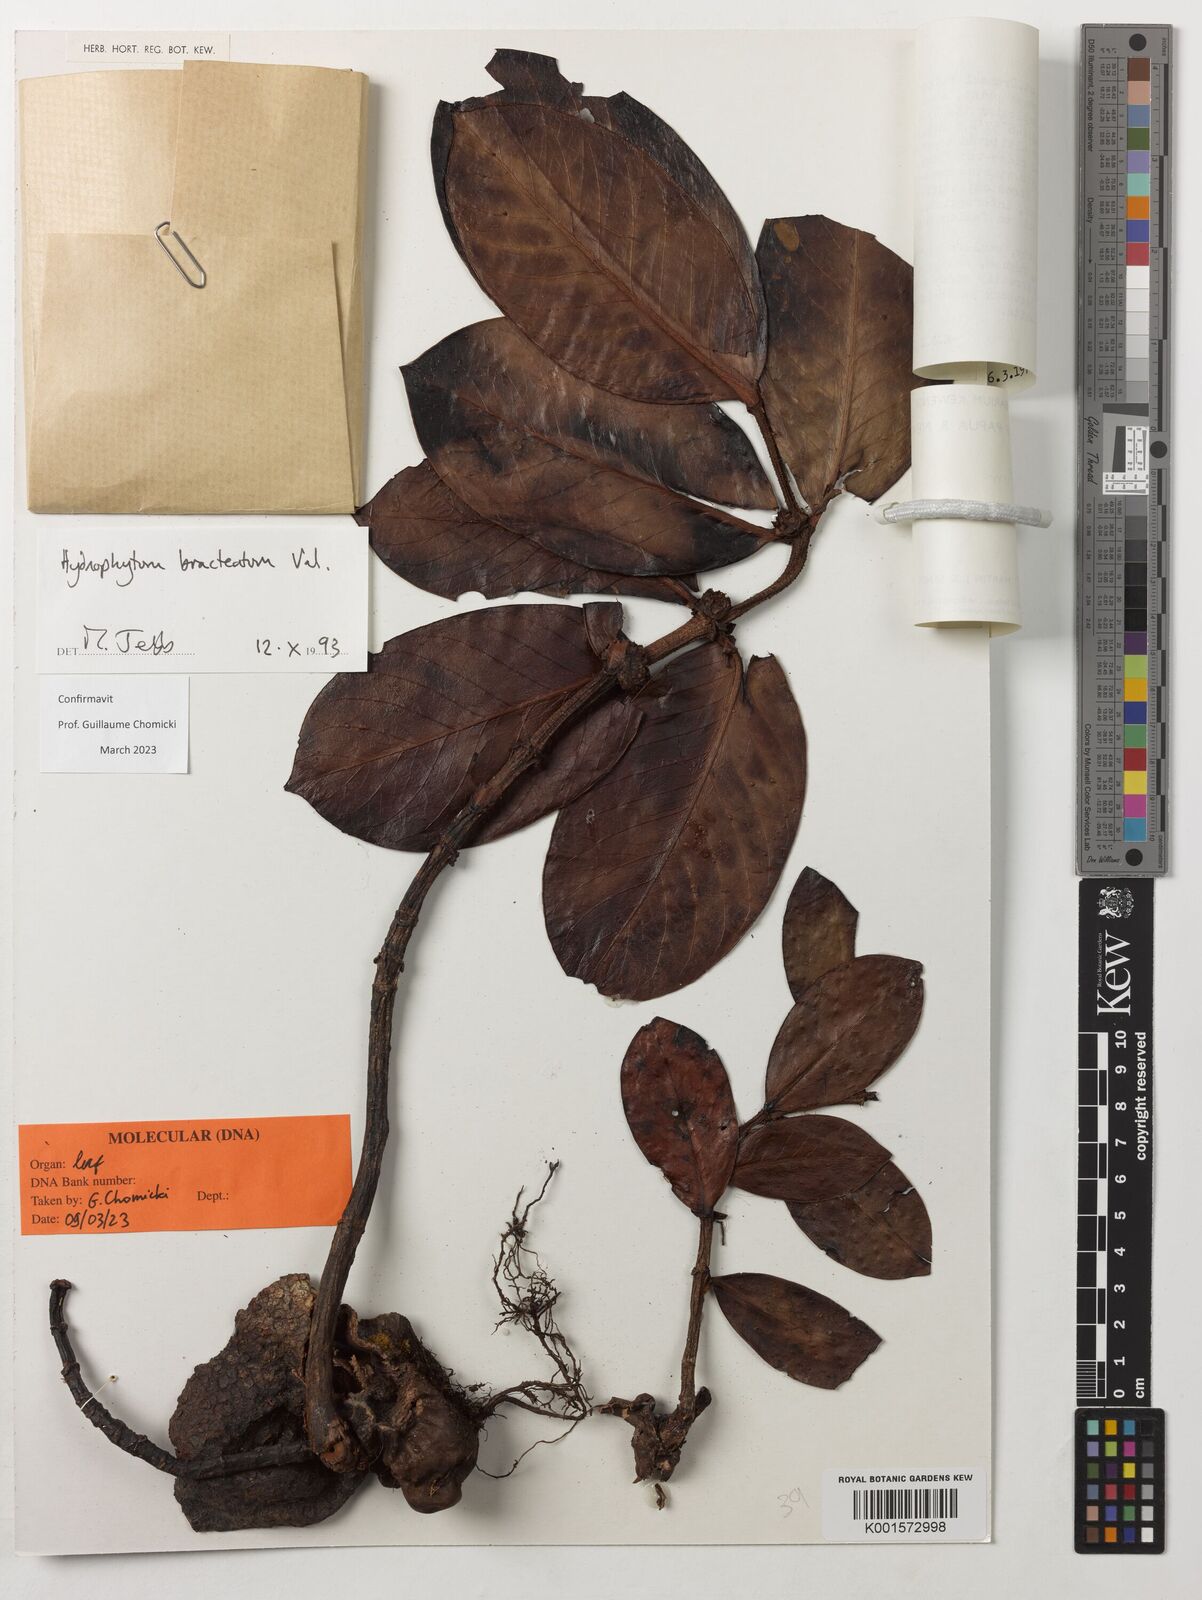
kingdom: Plantae
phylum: Tracheophyta
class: Magnoliopsida
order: Gentianales
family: Rubiaceae
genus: Hydnophytum
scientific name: Hydnophytum bracteatum
